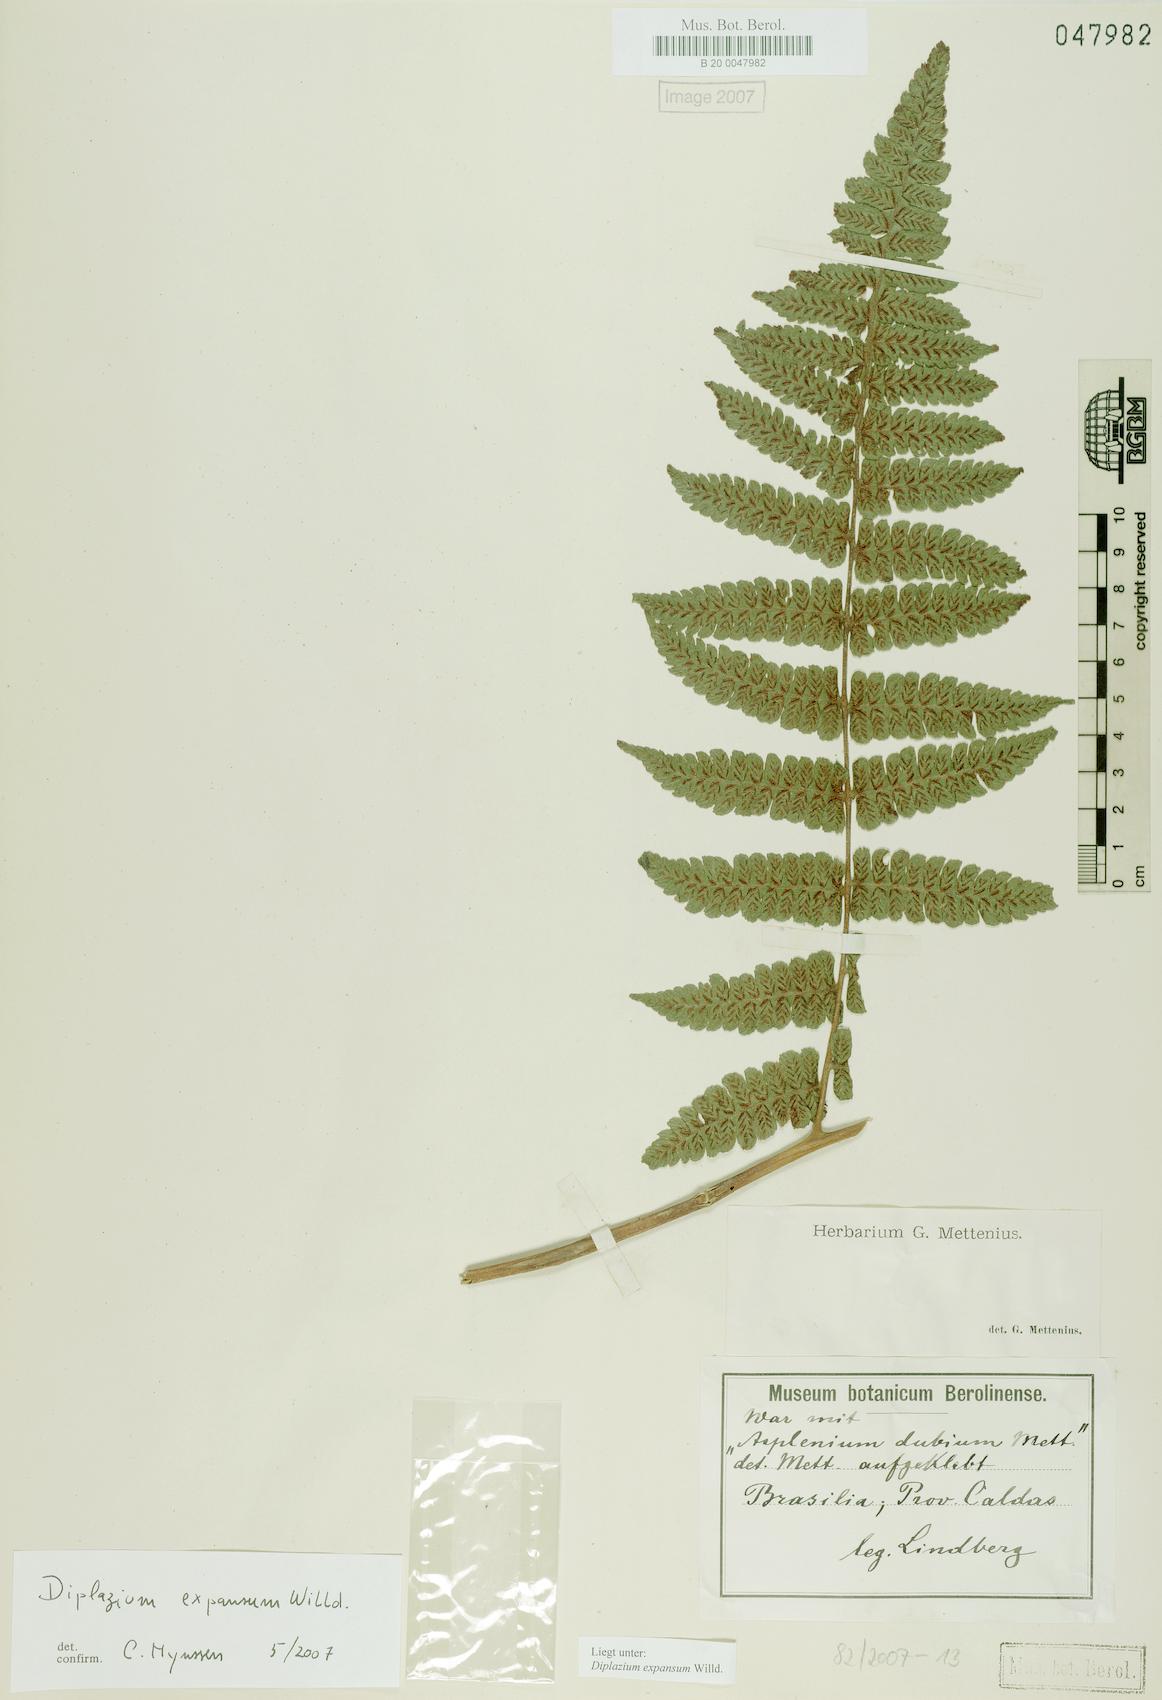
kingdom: Plantae
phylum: Tracheophyta
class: Polypodiopsida
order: Polypodiales
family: Athyriaceae
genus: Diplazium
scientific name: Diplazium expansum
